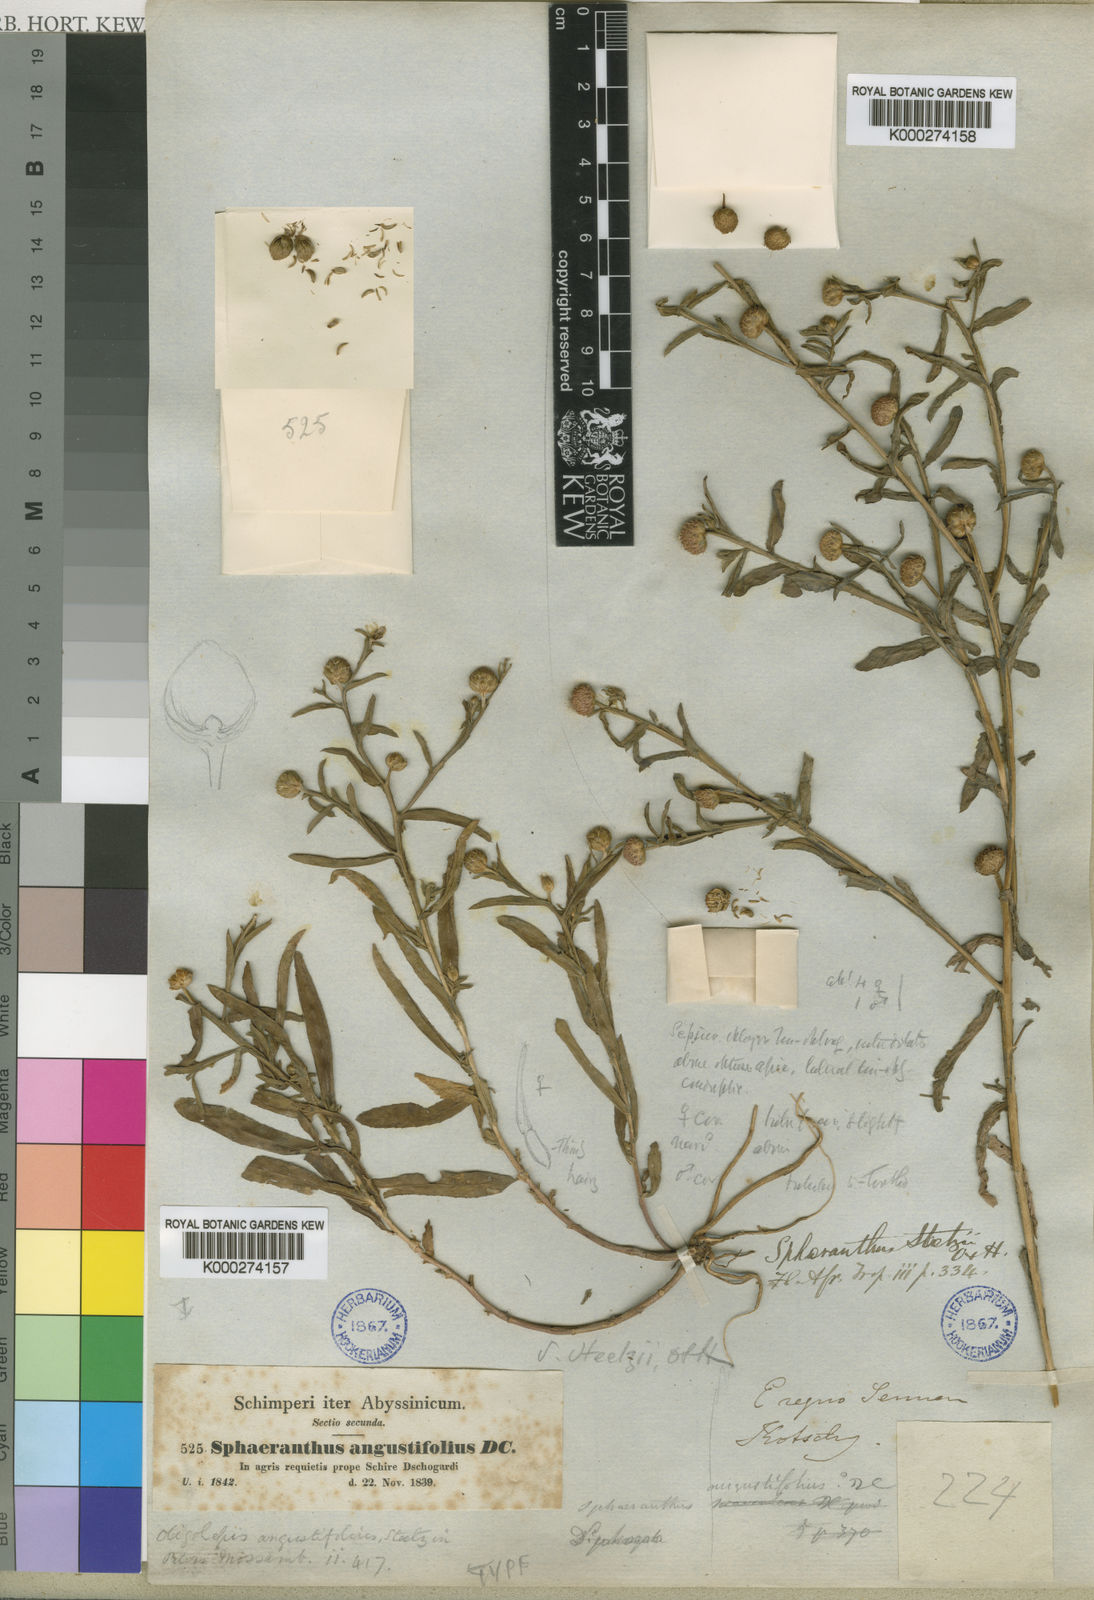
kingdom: Plantae
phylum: Tracheophyta
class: Magnoliopsida
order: Asterales
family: Asteraceae
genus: Sphaeranthus
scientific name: Sphaeranthus steetzii
